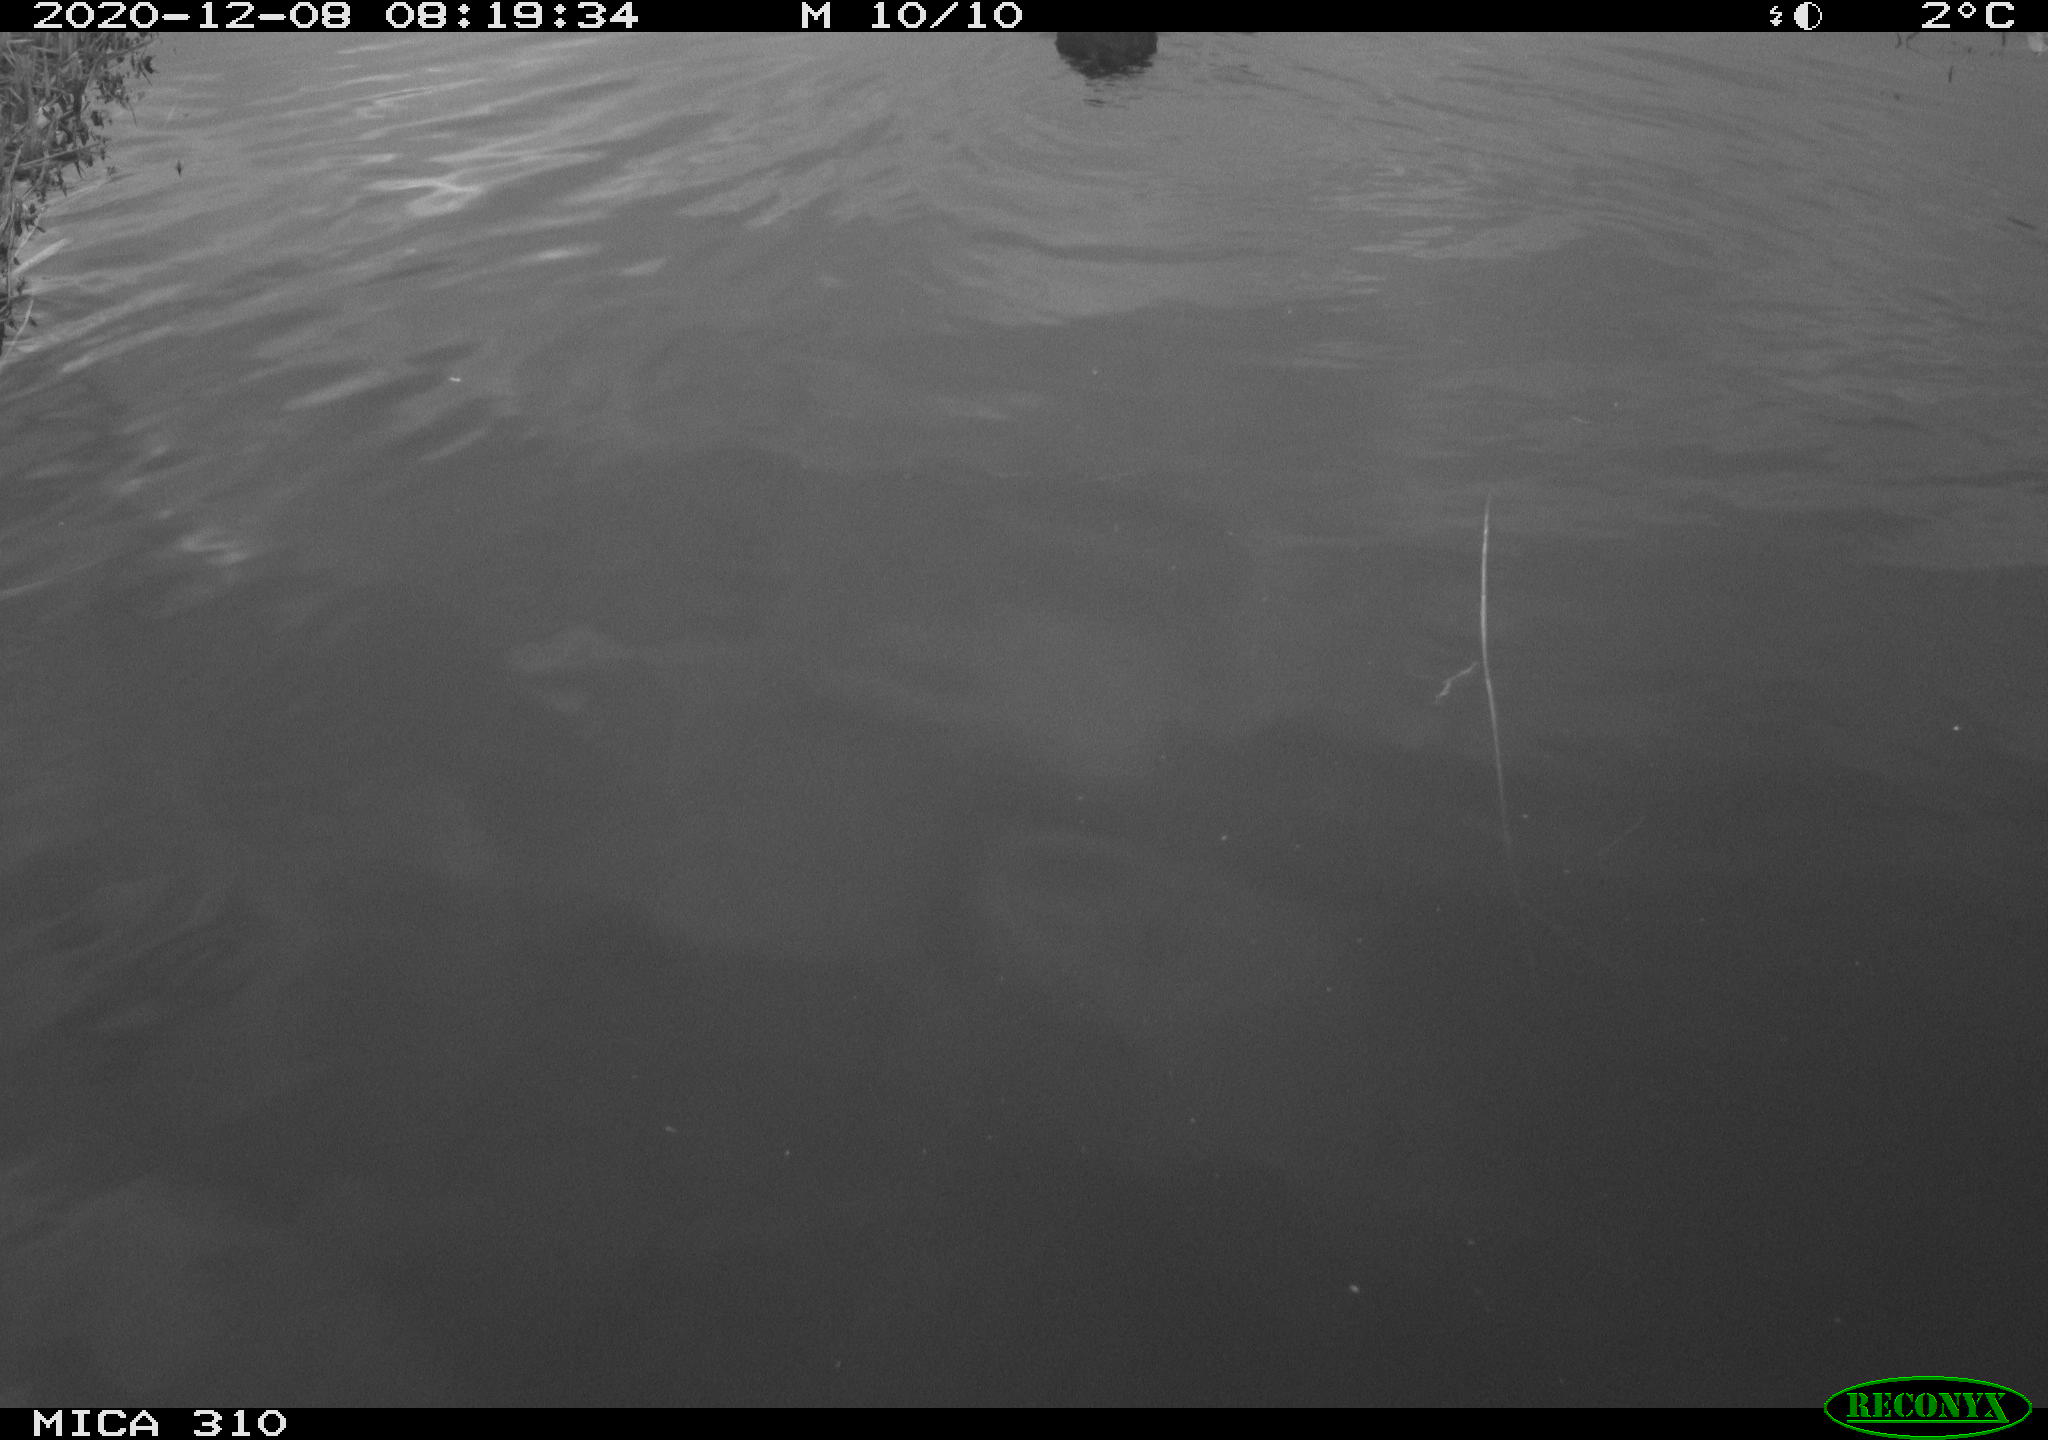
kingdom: Animalia
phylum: Chordata
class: Aves
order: Gruiformes
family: Rallidae
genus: Fulica
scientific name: Fulica atra
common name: Eurasian coot
